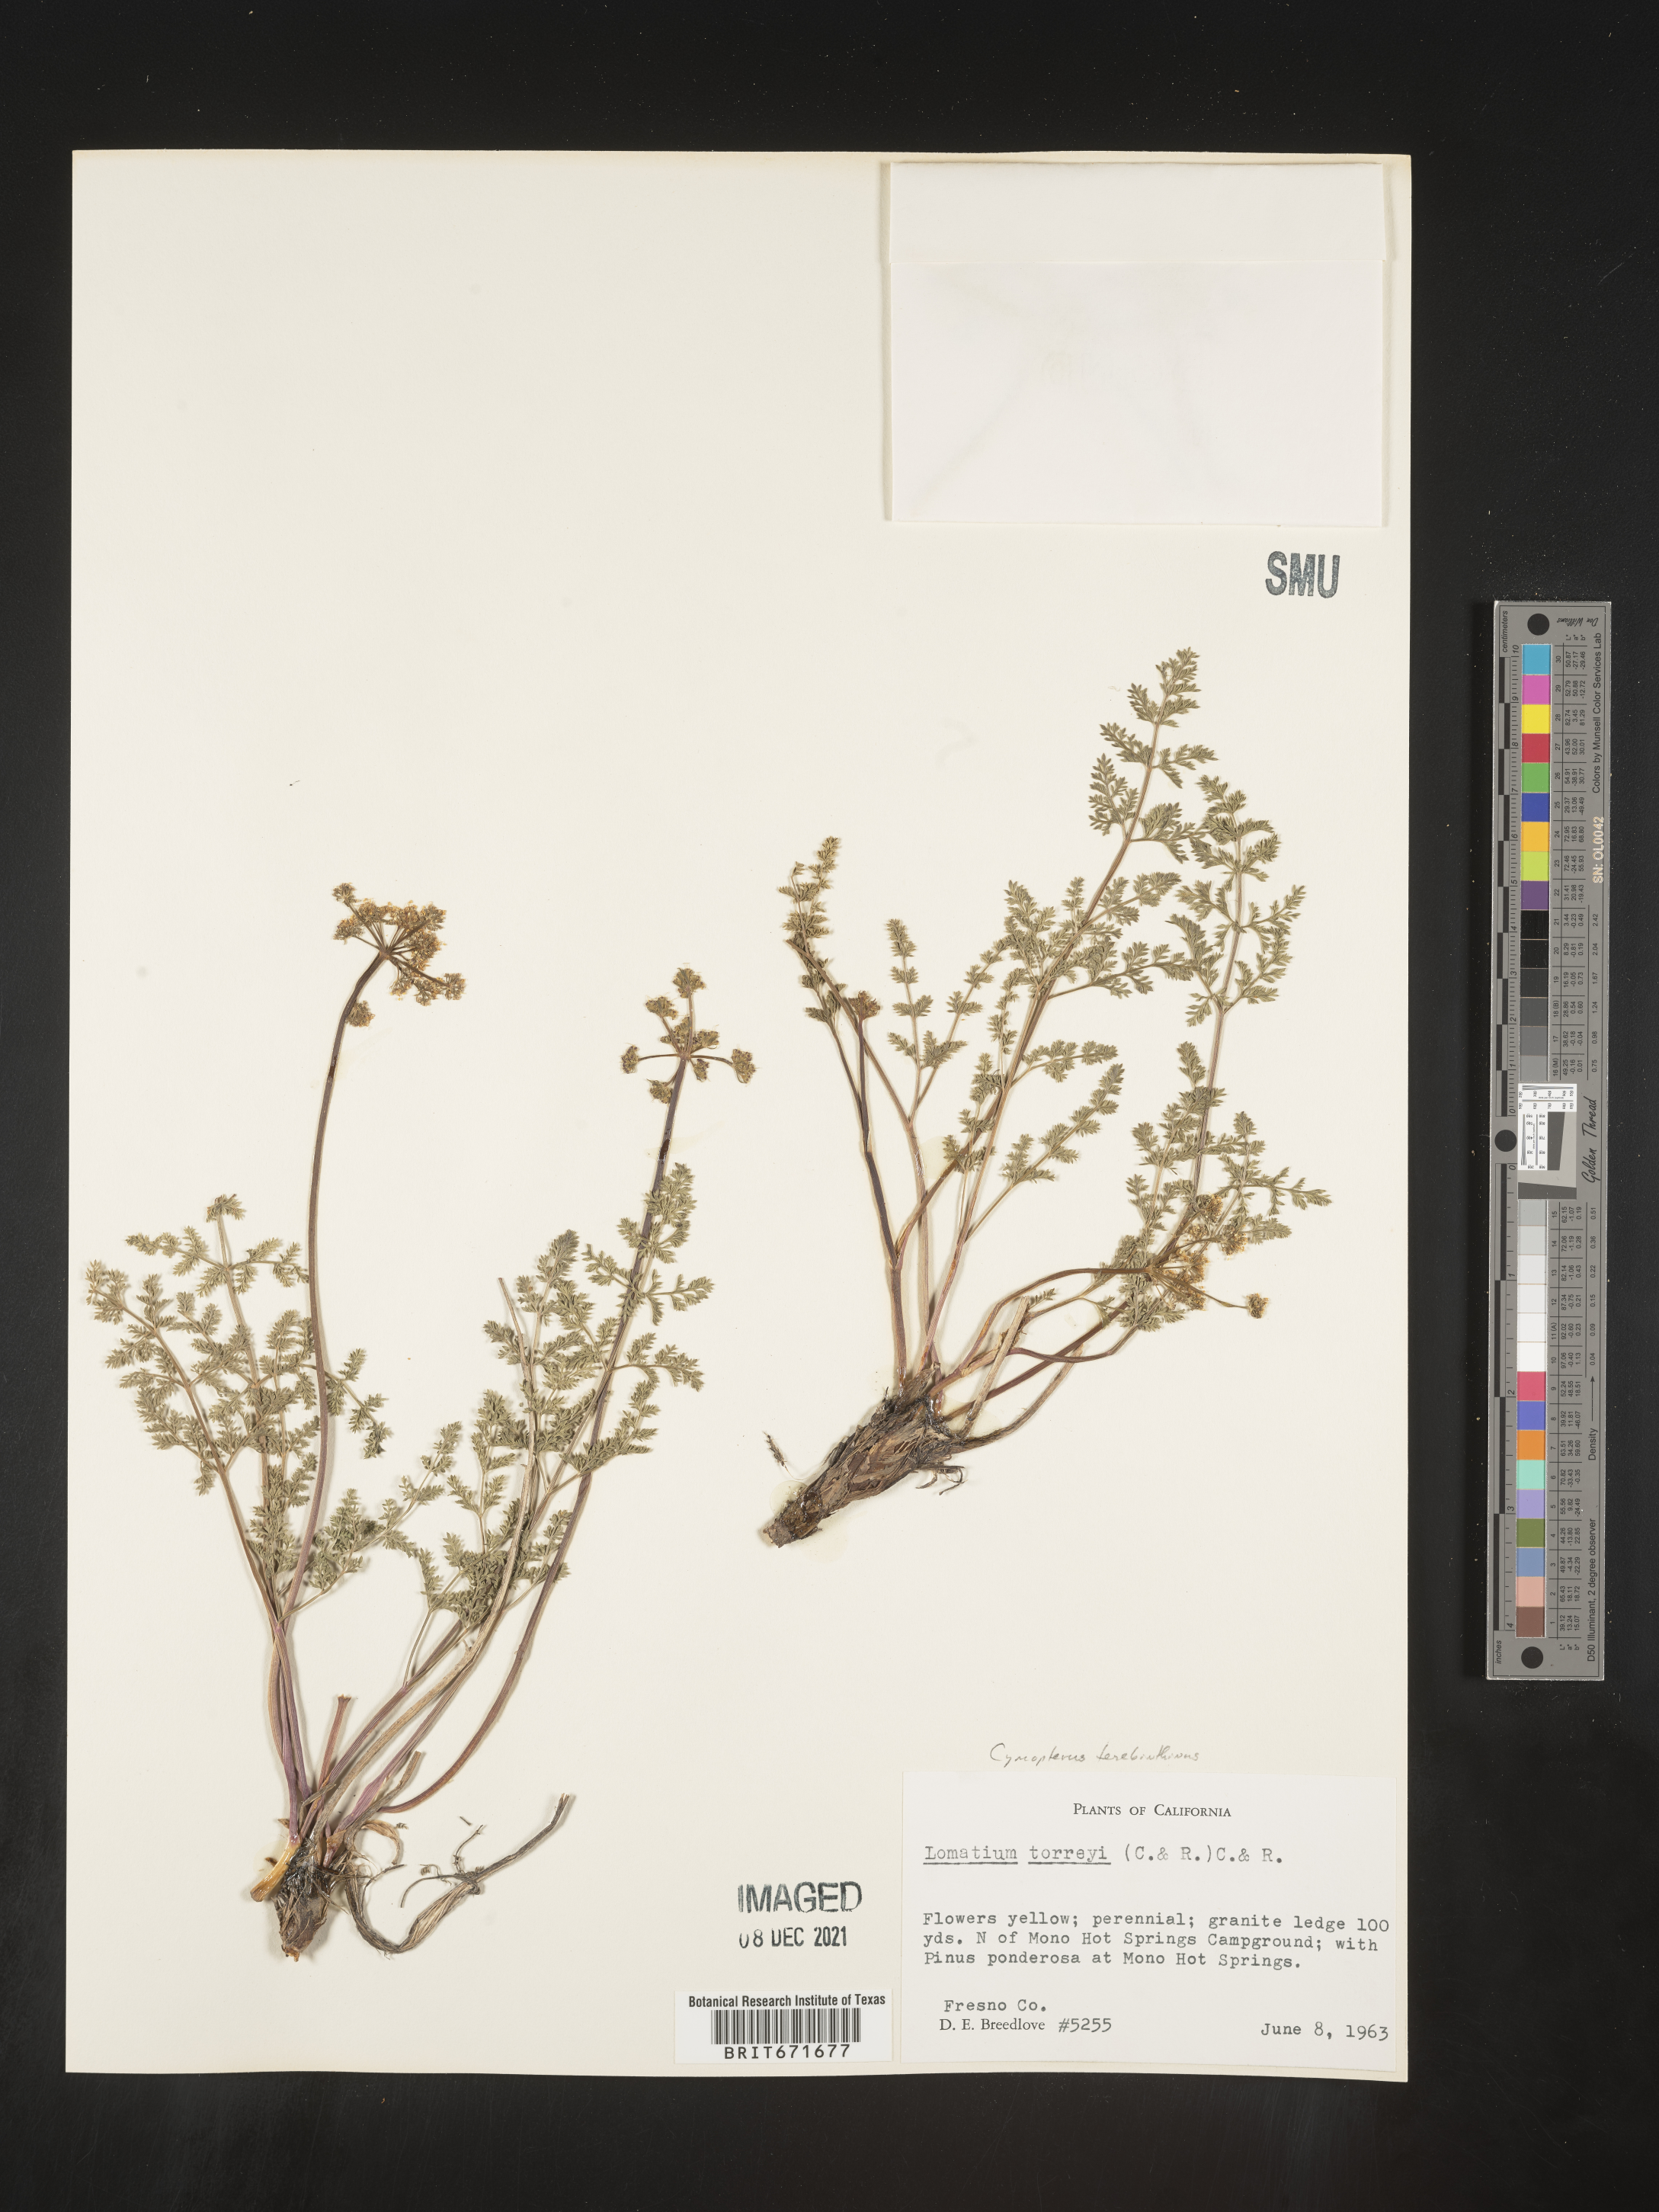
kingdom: Plantae
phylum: Tracheophyta
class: Magnoliopsida
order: Apiales
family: Apiaceae
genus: Pteryxia
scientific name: Pteryxia terebinthina
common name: Turpentine wavewing
